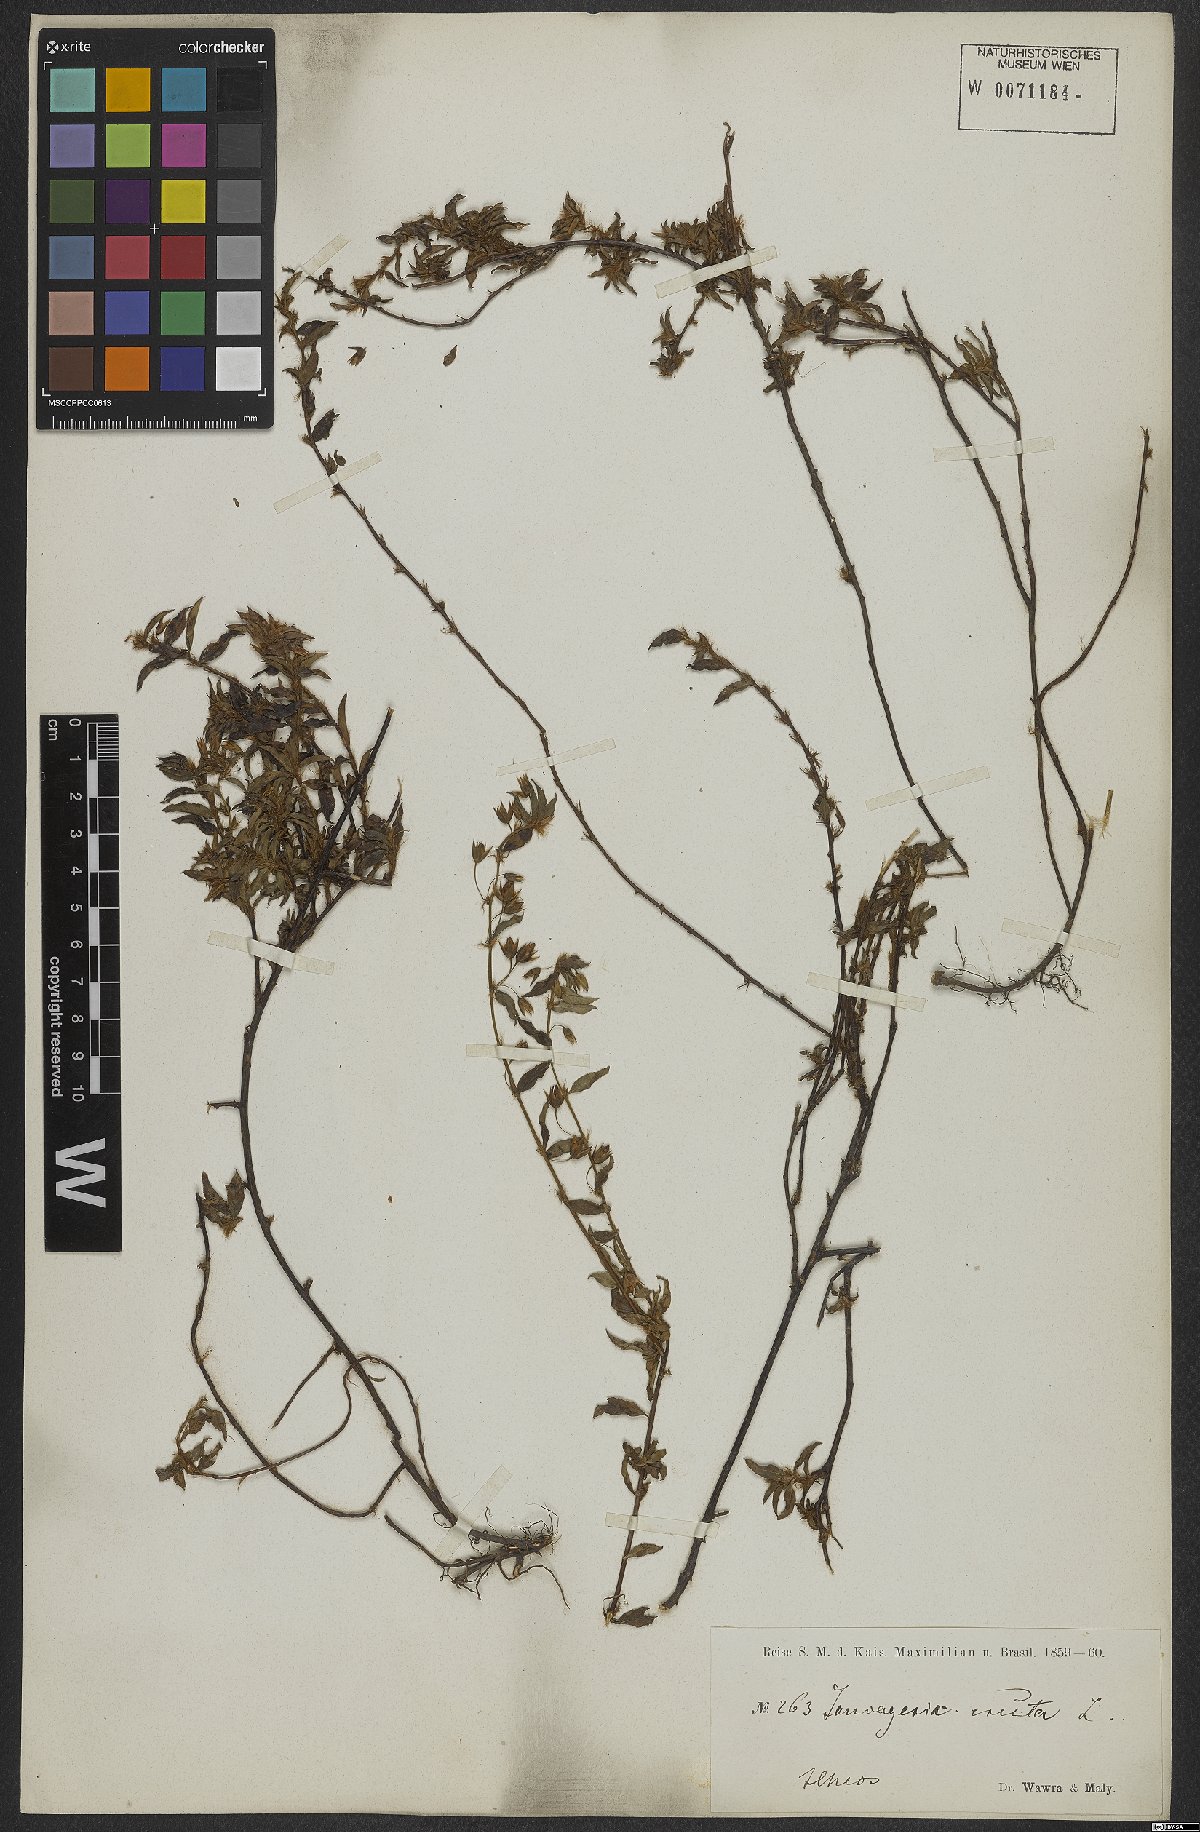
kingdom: Plantae
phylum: Tracheophyta
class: Magnoliopsida
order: Malpighiales
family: Ochnaceae
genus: Sauvagesia
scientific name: Sauvagesia erecta
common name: Creole tea
